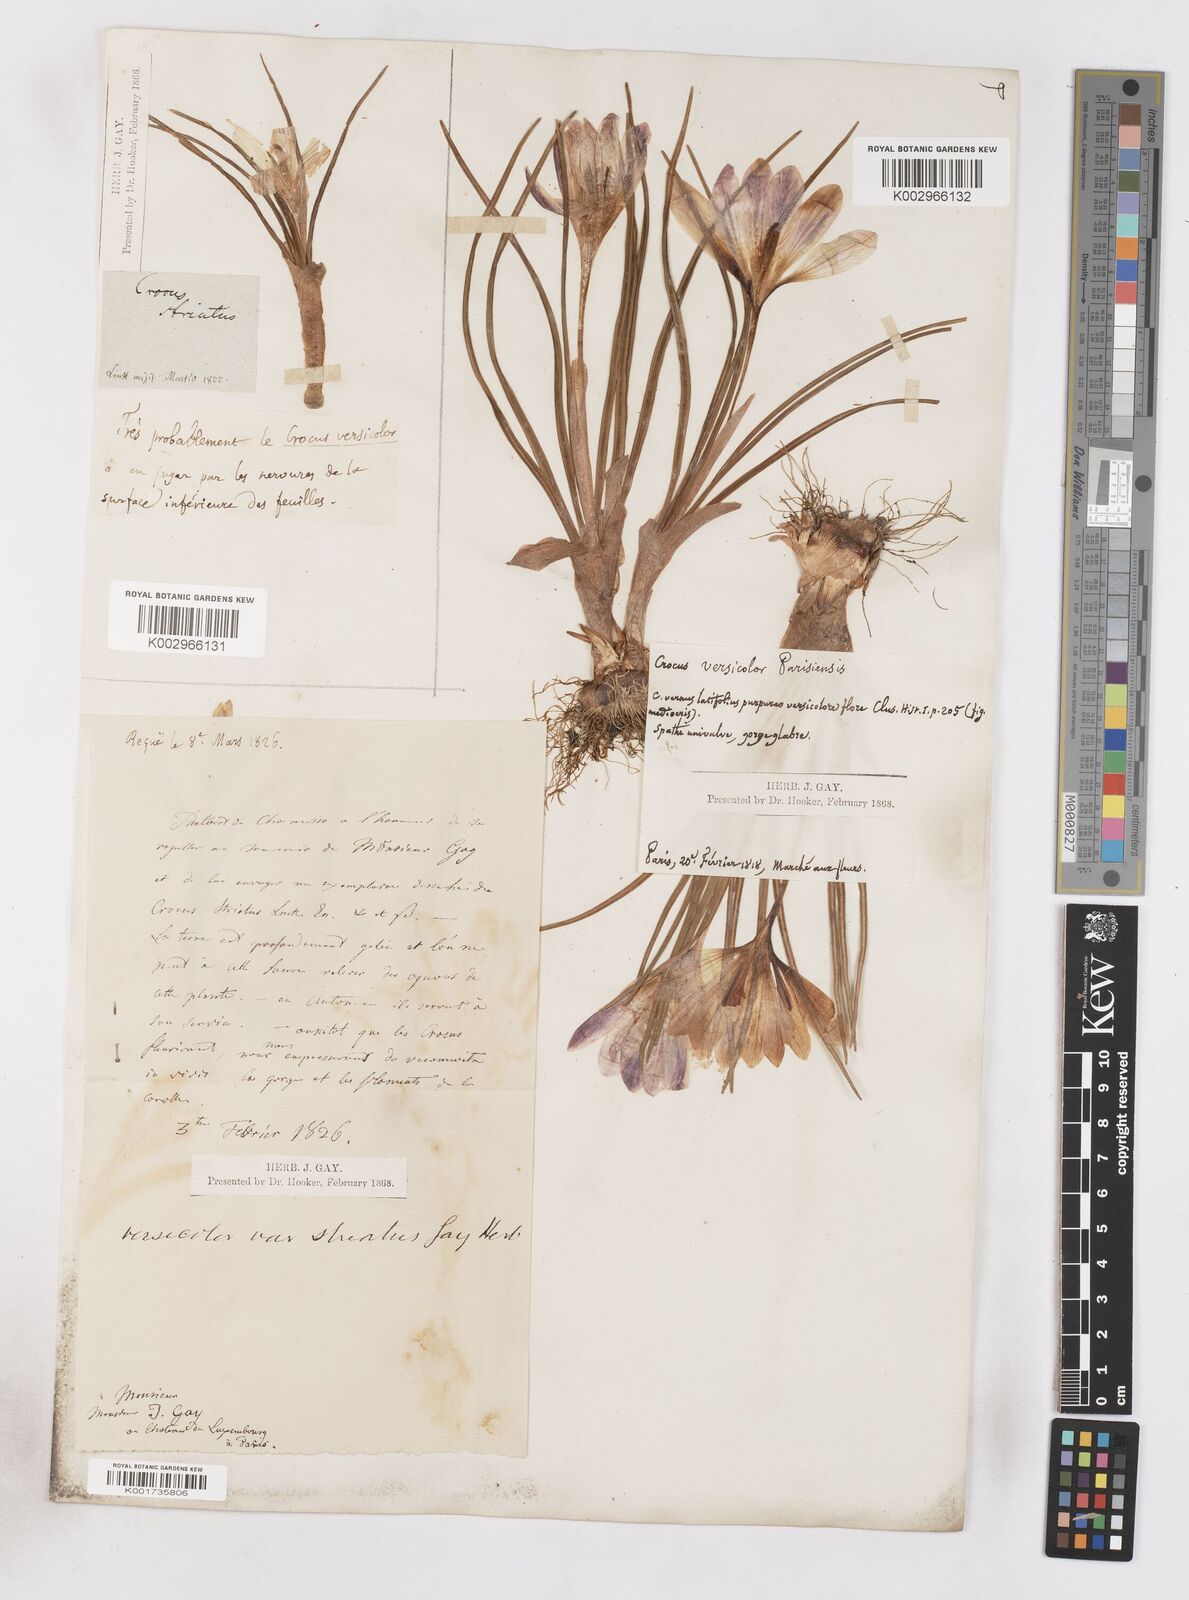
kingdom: Plantae
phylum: Tracheophyta
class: Liliopsida
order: Asparagales
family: Iridaceae
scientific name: Iridaceae
